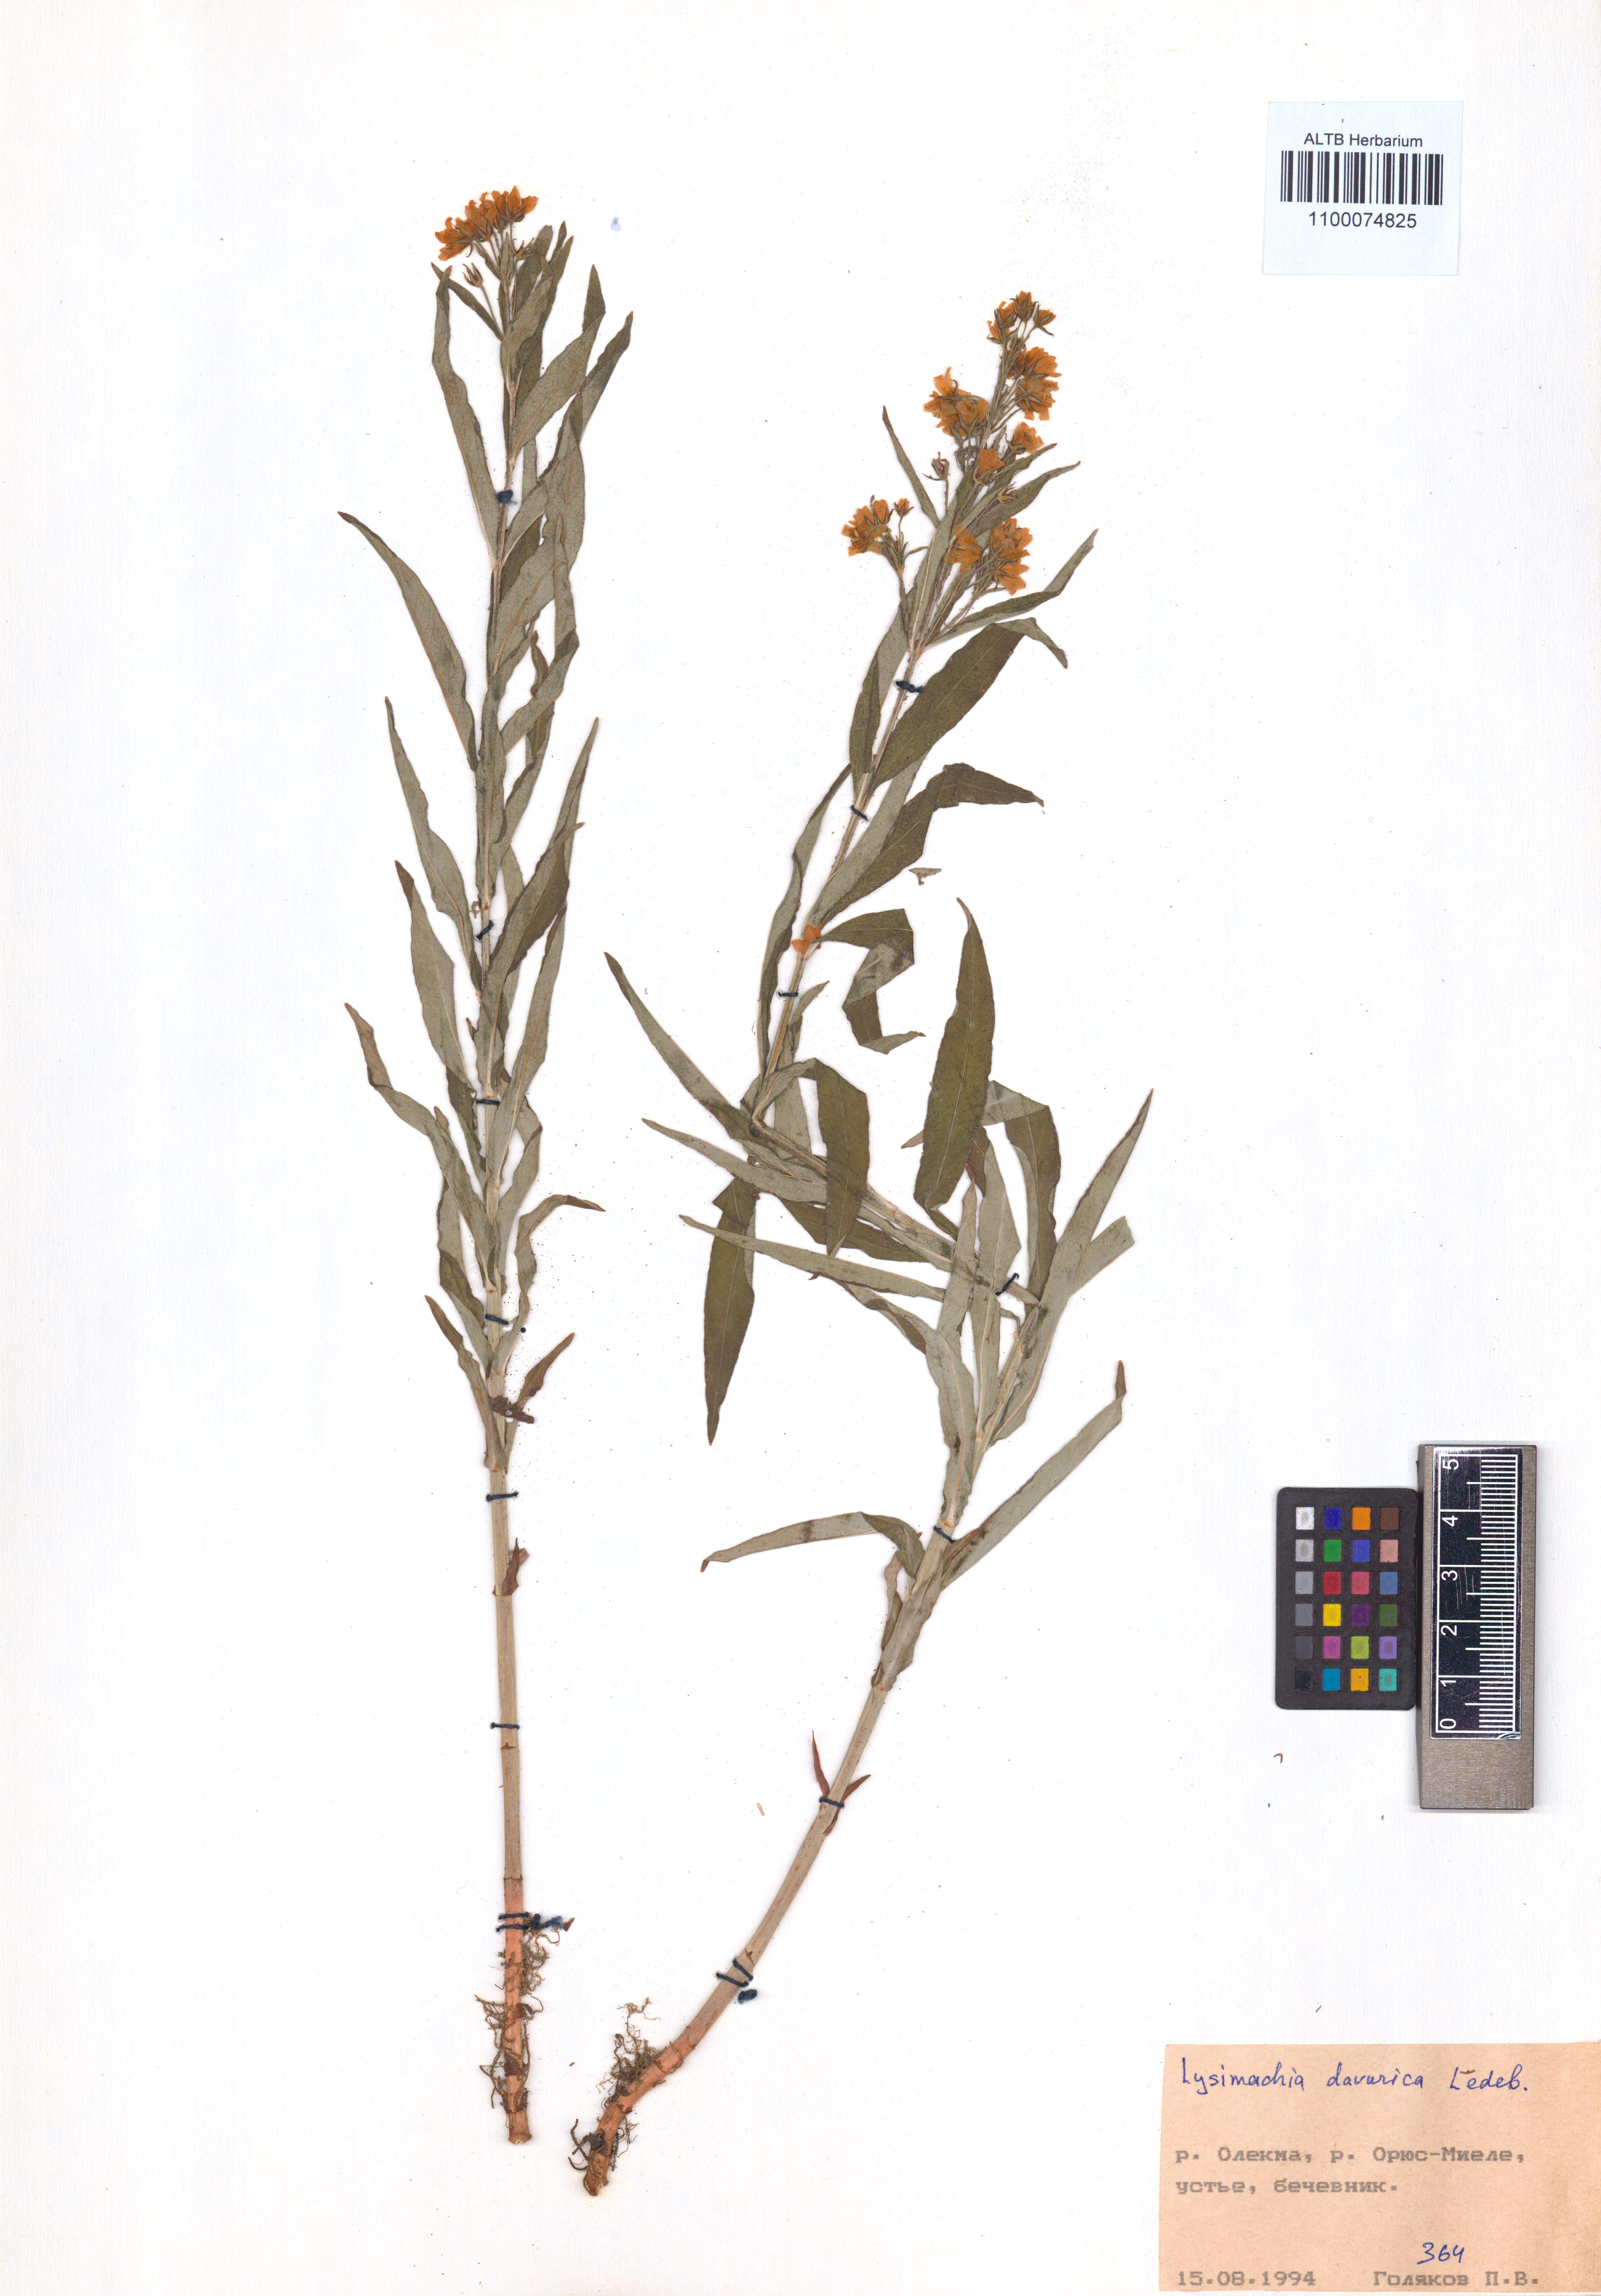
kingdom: Plantae
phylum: Tracheophyta
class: Magnoliopsida
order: Ericales
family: Primulaceae
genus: Lysimachia
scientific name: Lysimachia davurica
